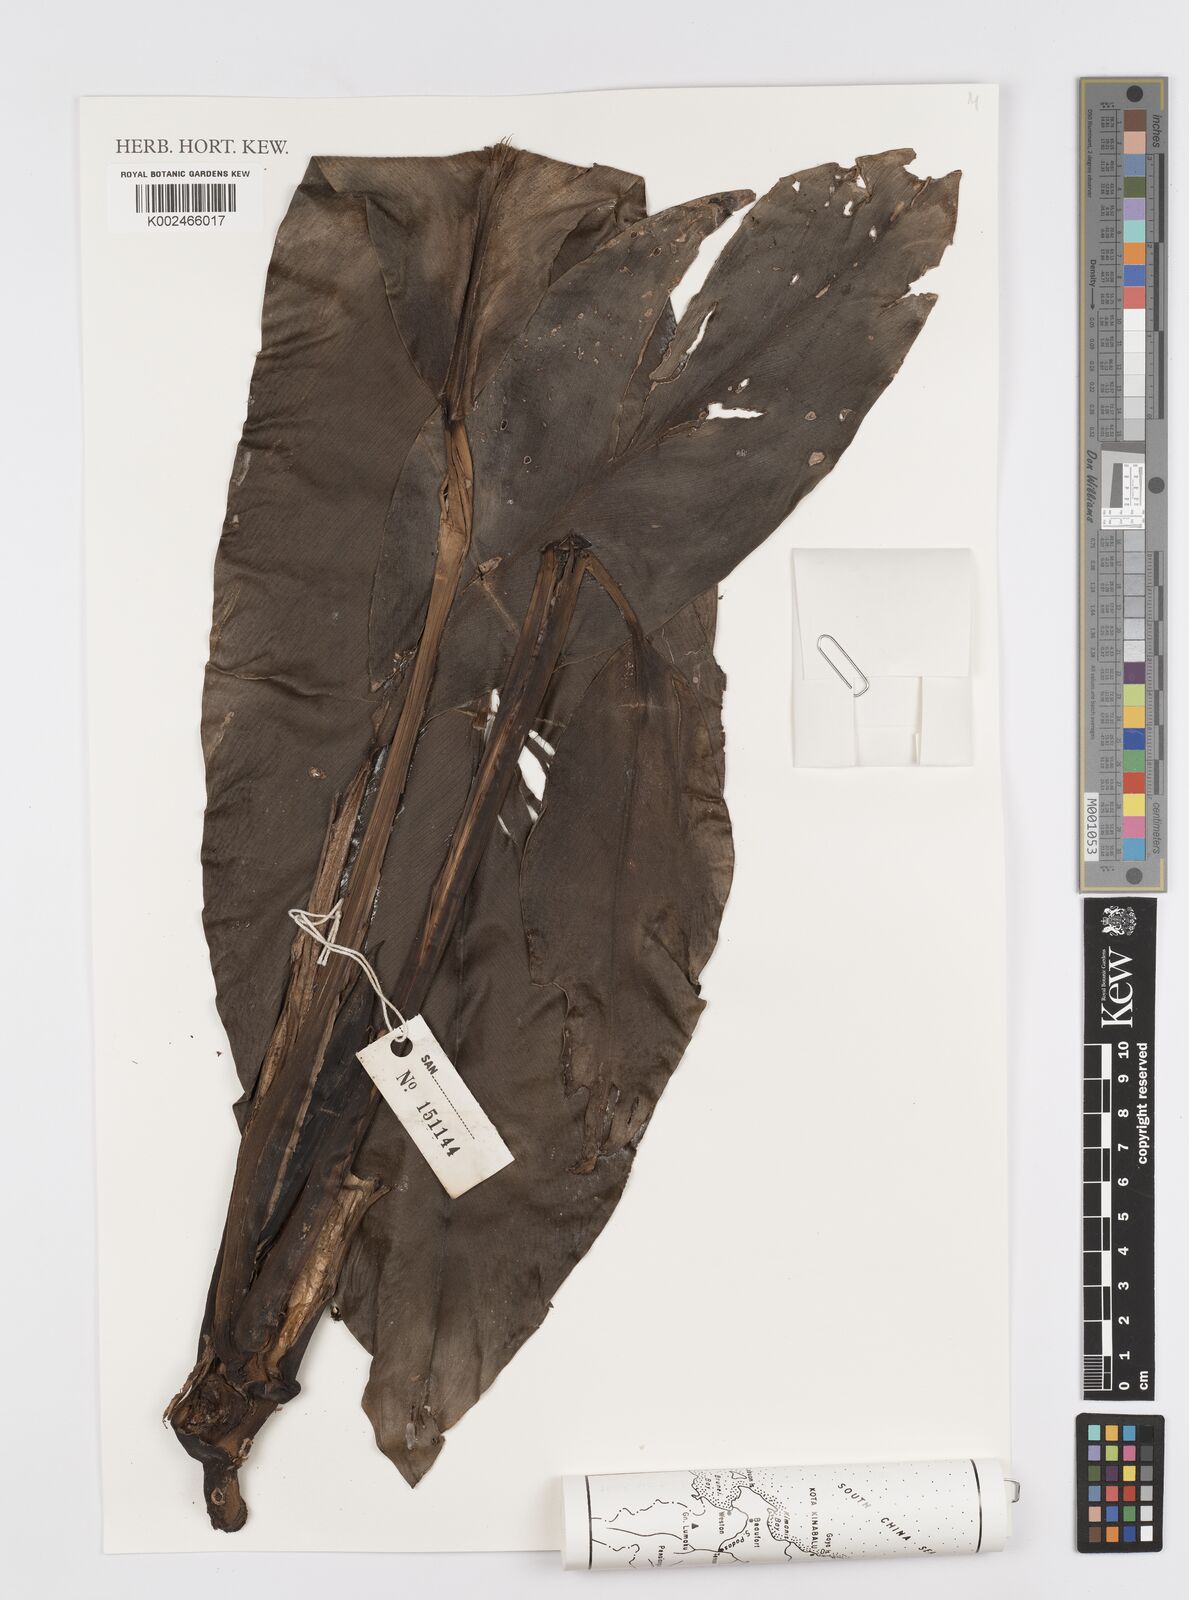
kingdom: Plantae
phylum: Tracheophyta
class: Liliopsida
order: Alismatales
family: Araceae
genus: Rhaphidophora
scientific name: Rhaphidophora
